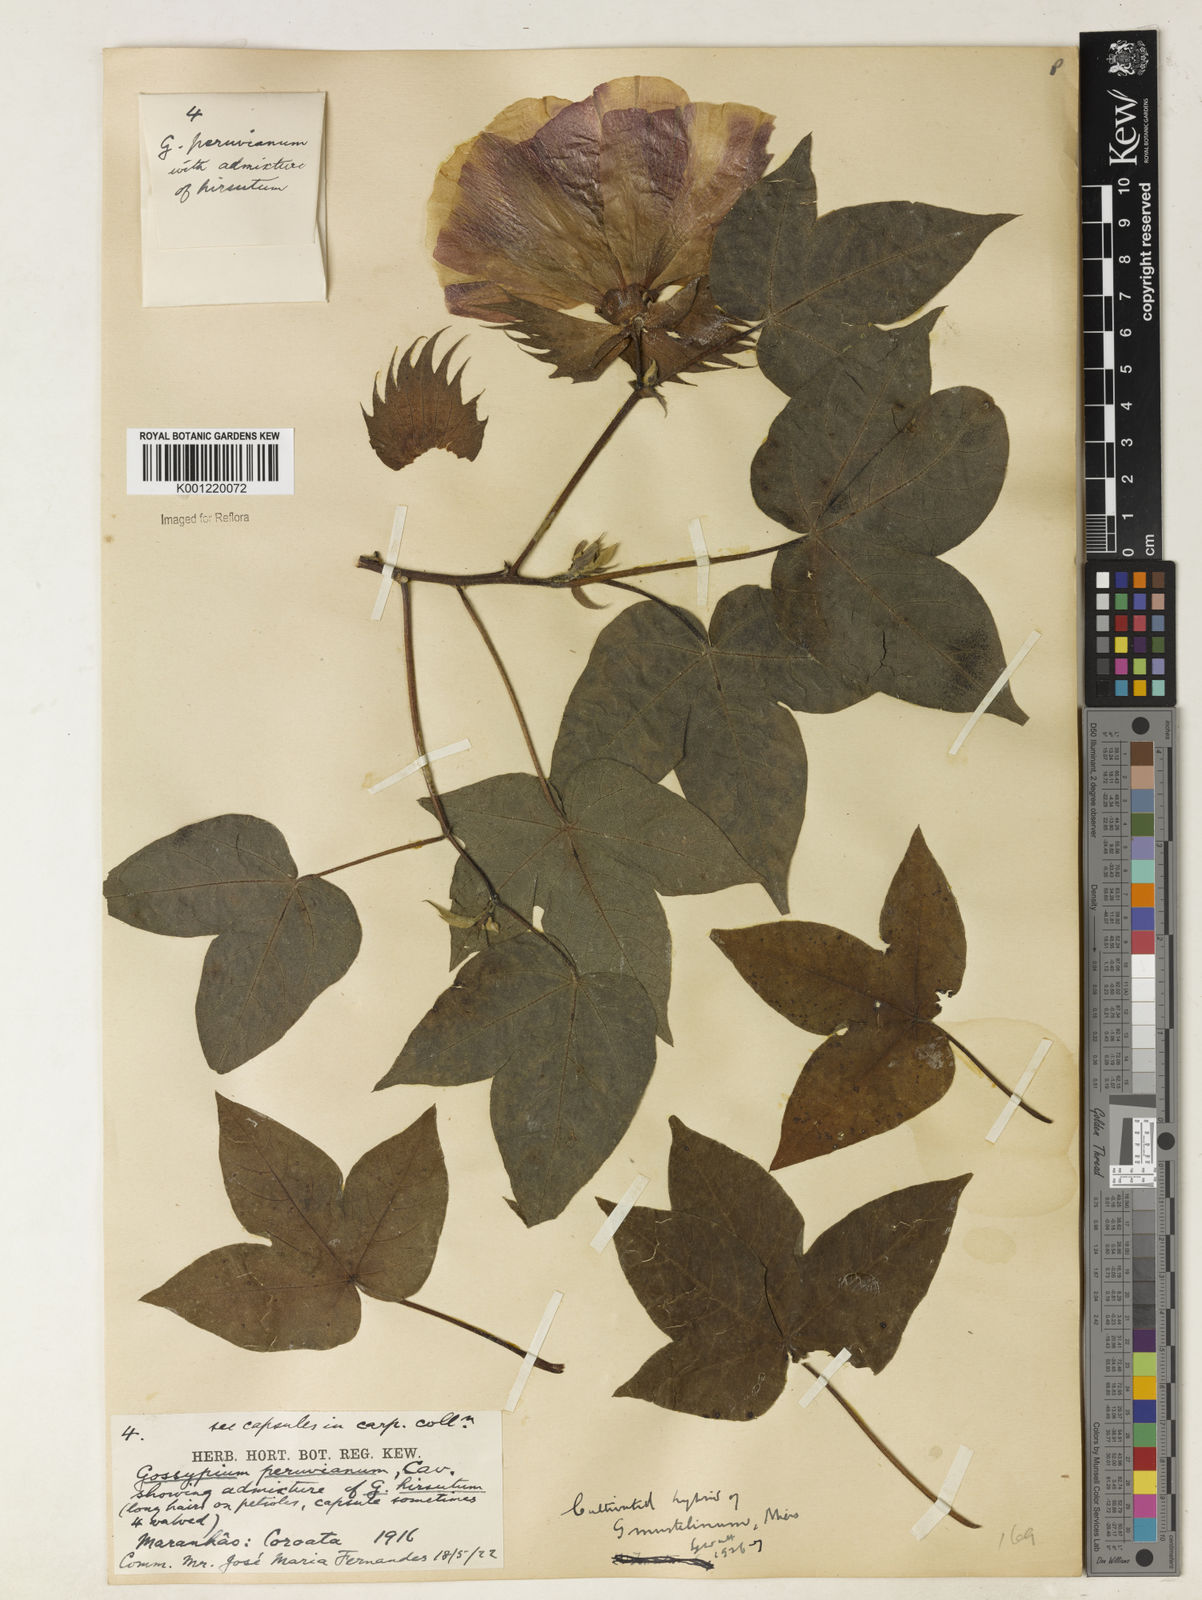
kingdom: Plantae
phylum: Tracheophyta
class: Magnoliopsida
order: Malvales
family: Malvaceae
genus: Gossypium
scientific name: Gossypium
